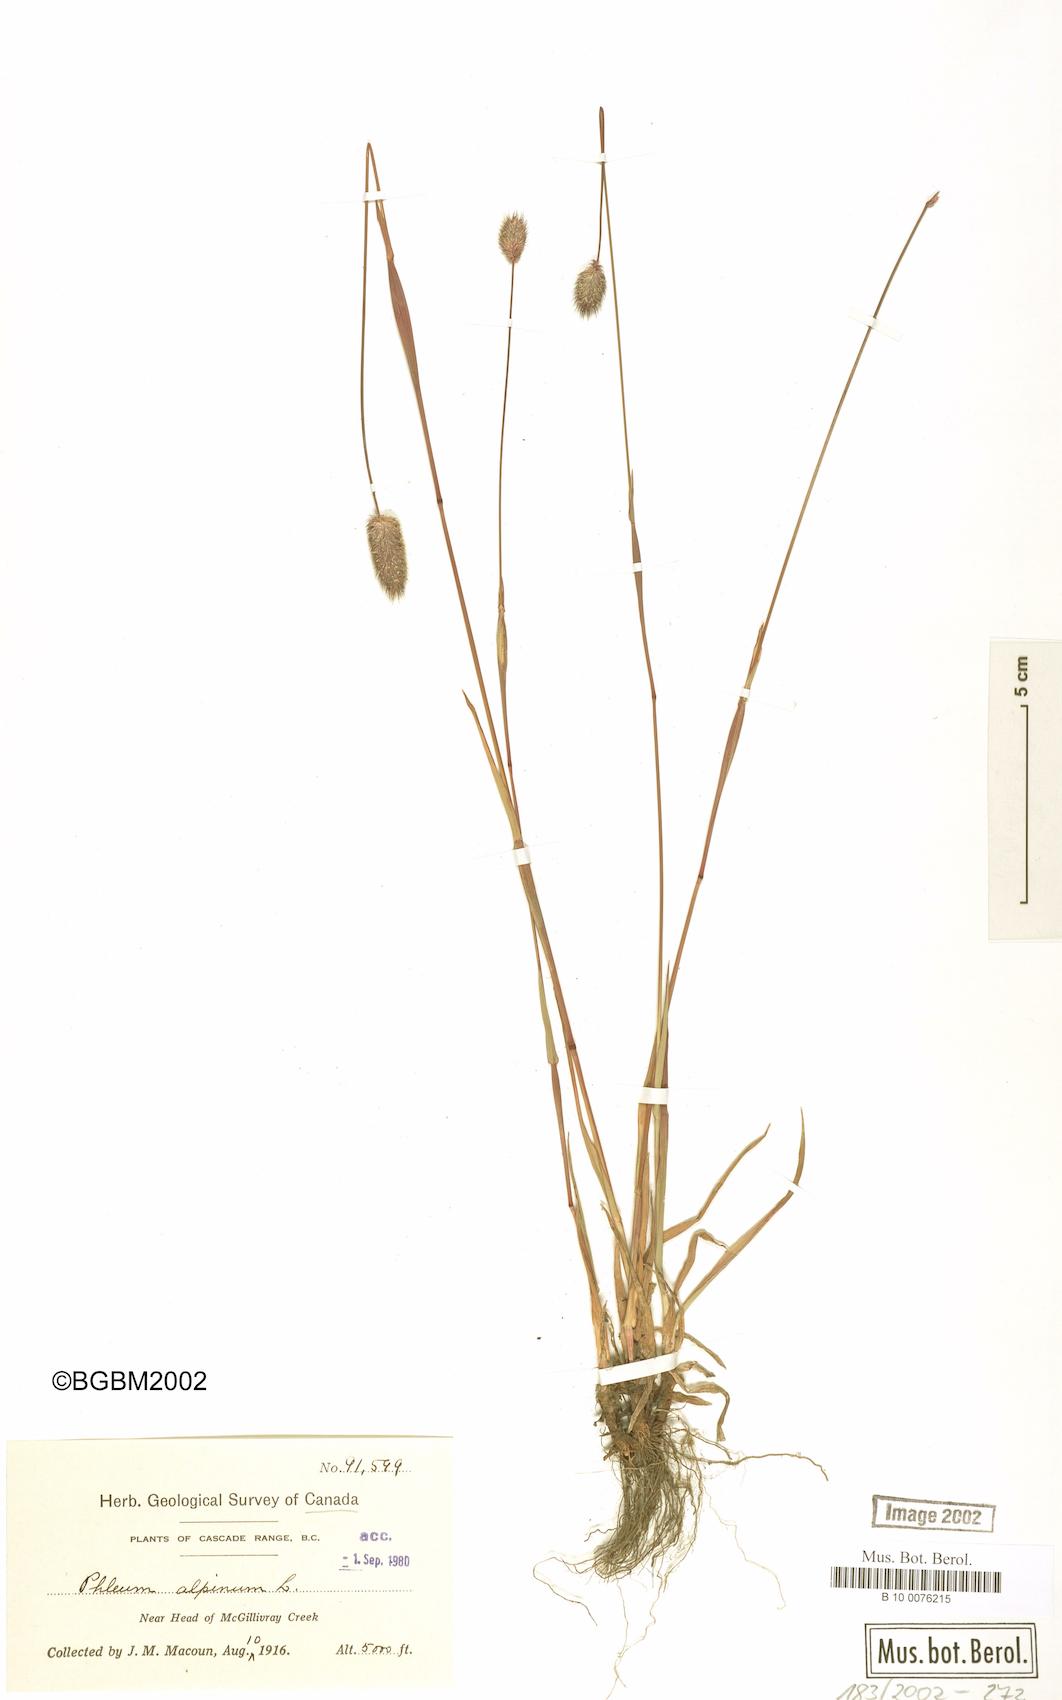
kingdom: Plantae
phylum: Tracheophyta
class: Liliopsida
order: Poales
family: Poaceae
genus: Phleum
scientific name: Phleum alpinum
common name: Alpine cat's-tail
